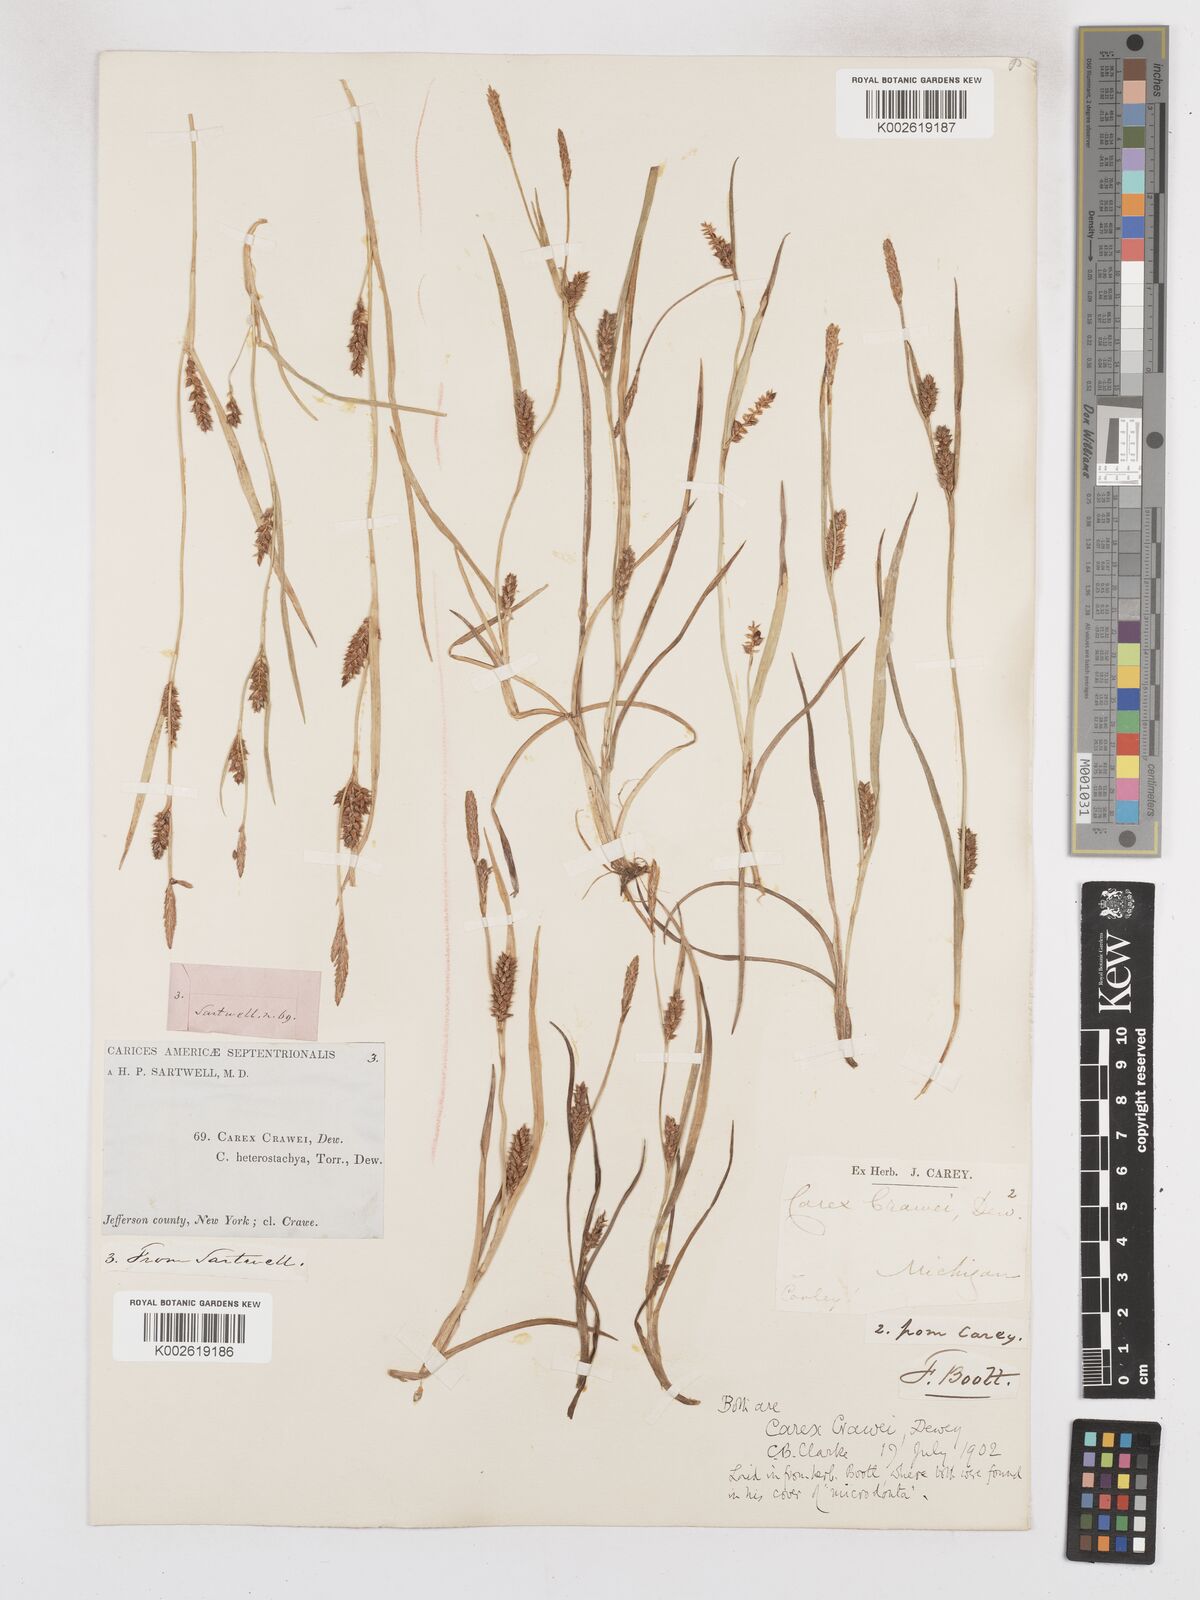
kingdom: Plantae
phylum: Tracheophyta
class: Liliopsida
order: Poales
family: Cyperaceae
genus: Carex
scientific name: Carex crawei
